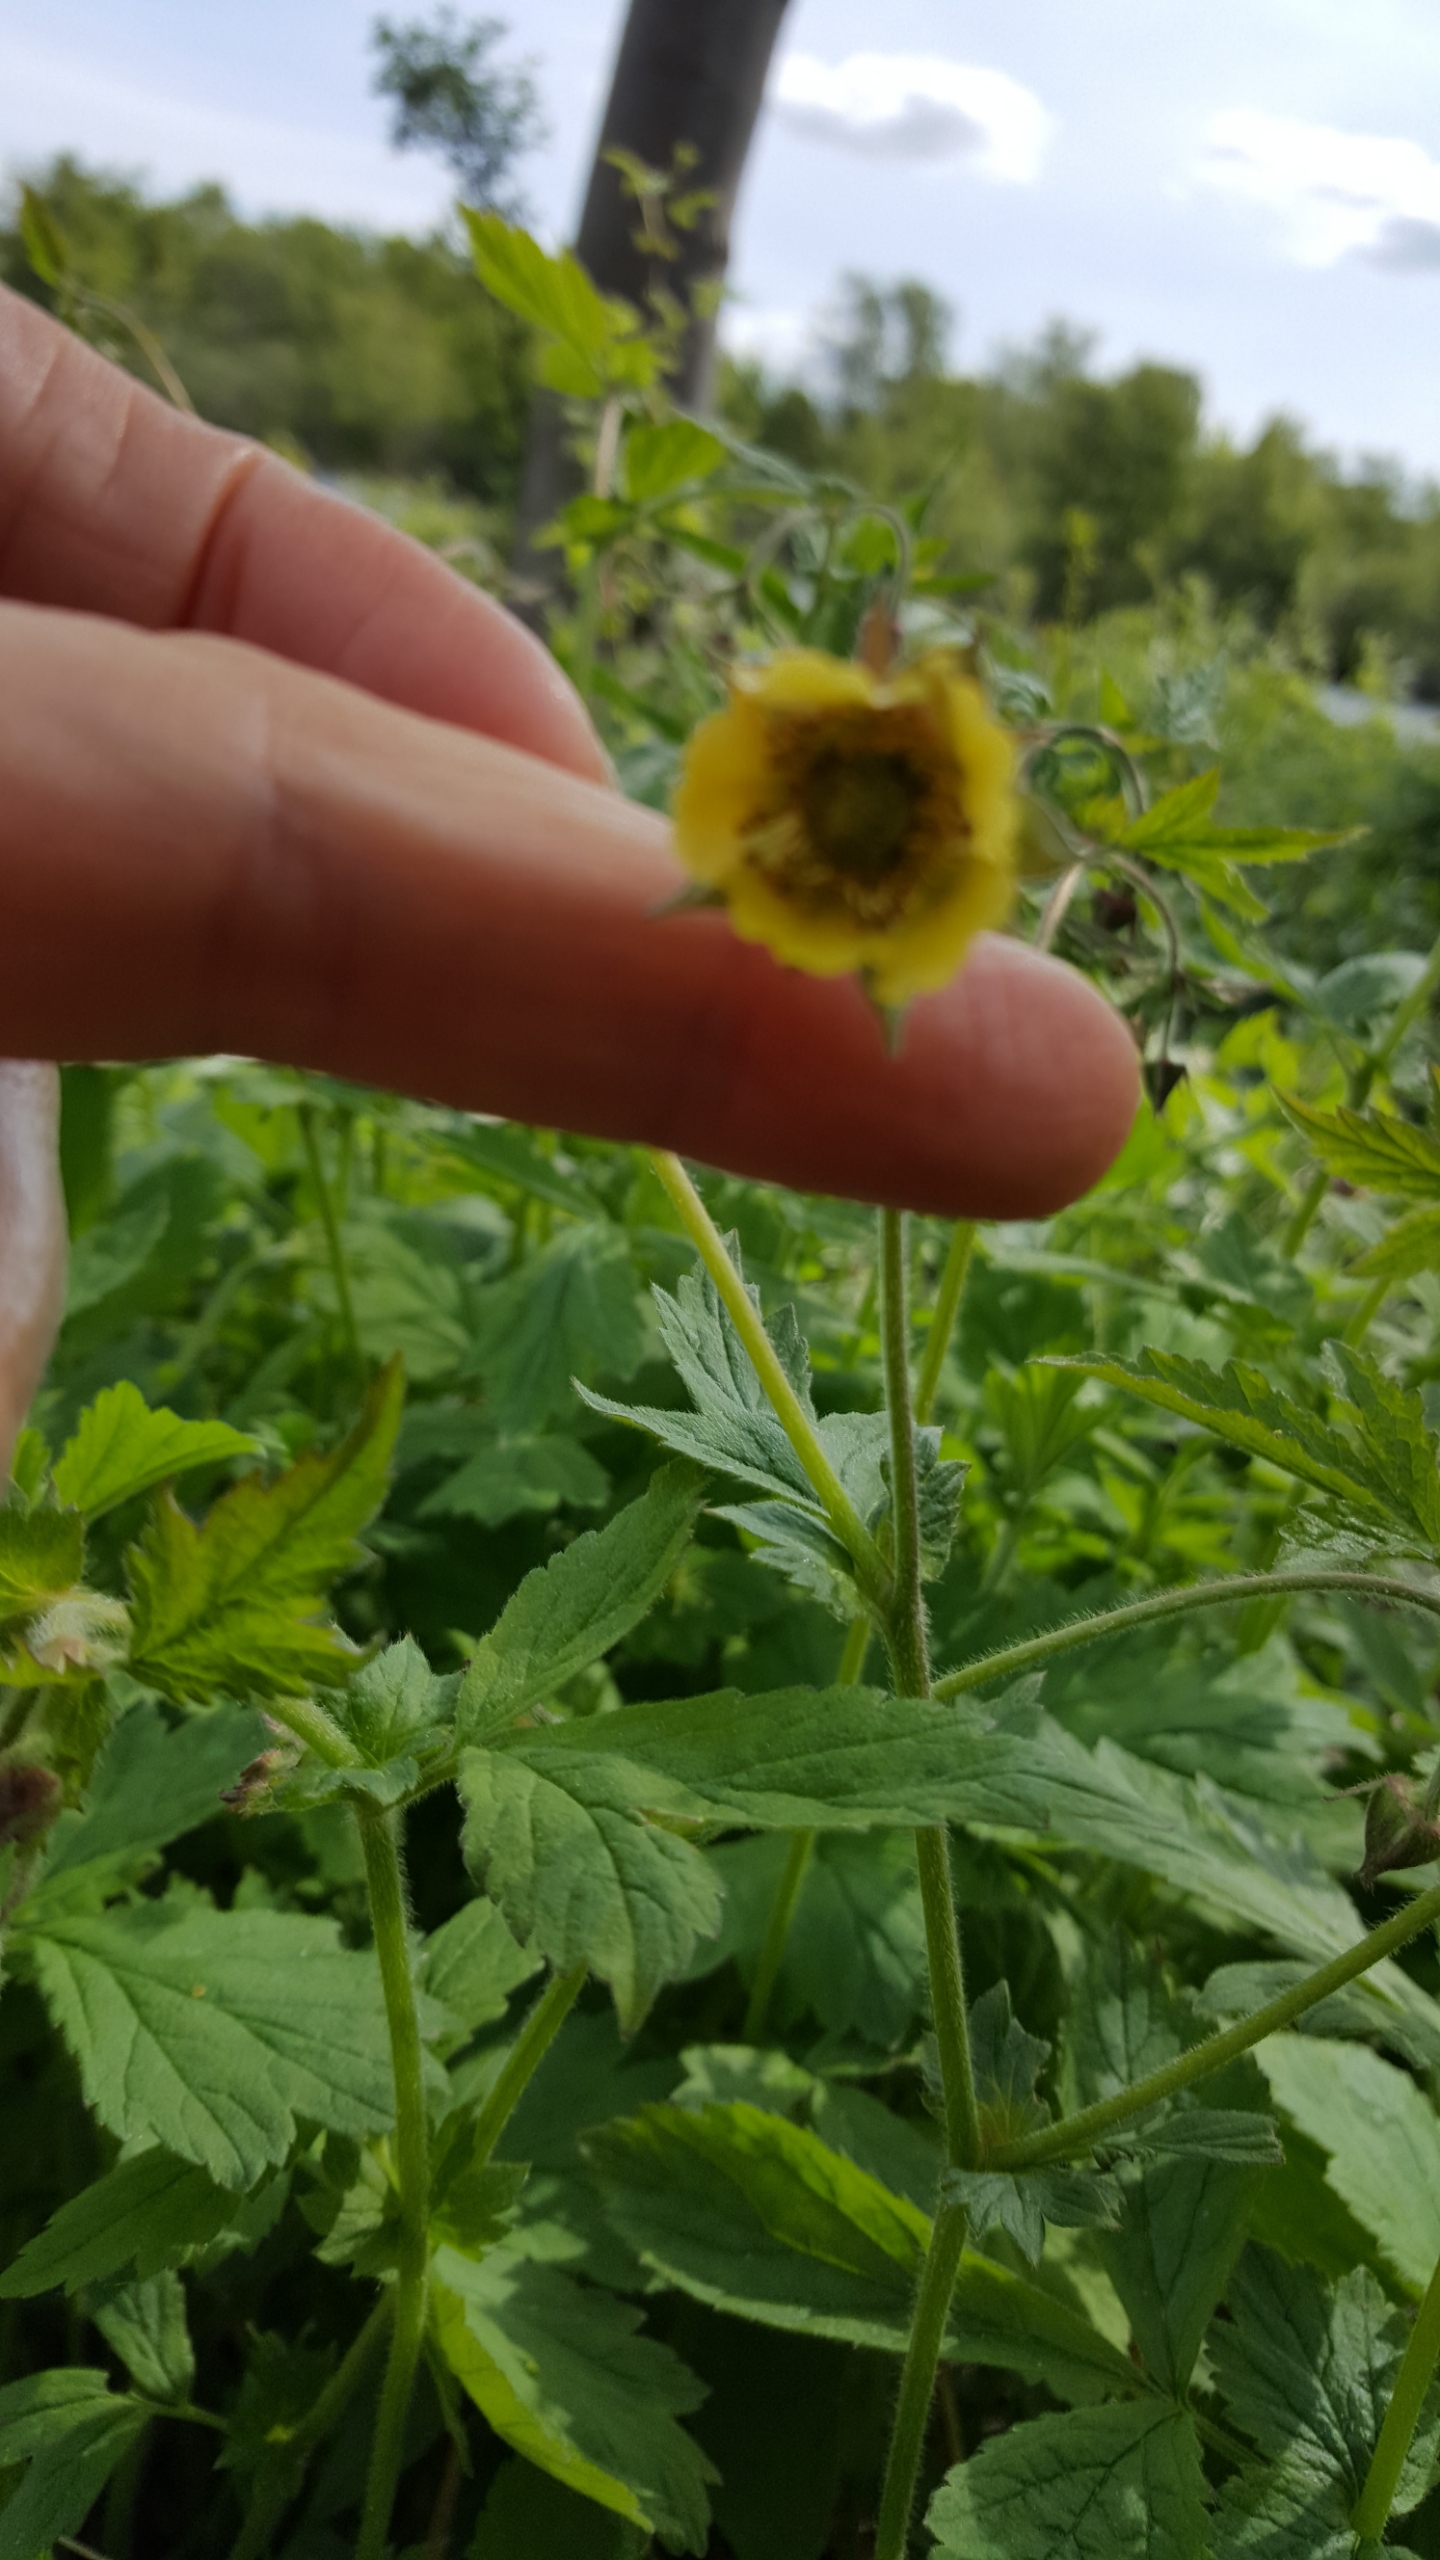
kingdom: Plantae
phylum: Tracheophyta
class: Magnoliopsida
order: Rosales
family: Rosaceae
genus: Geum
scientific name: Geum
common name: Høj nellikerod
